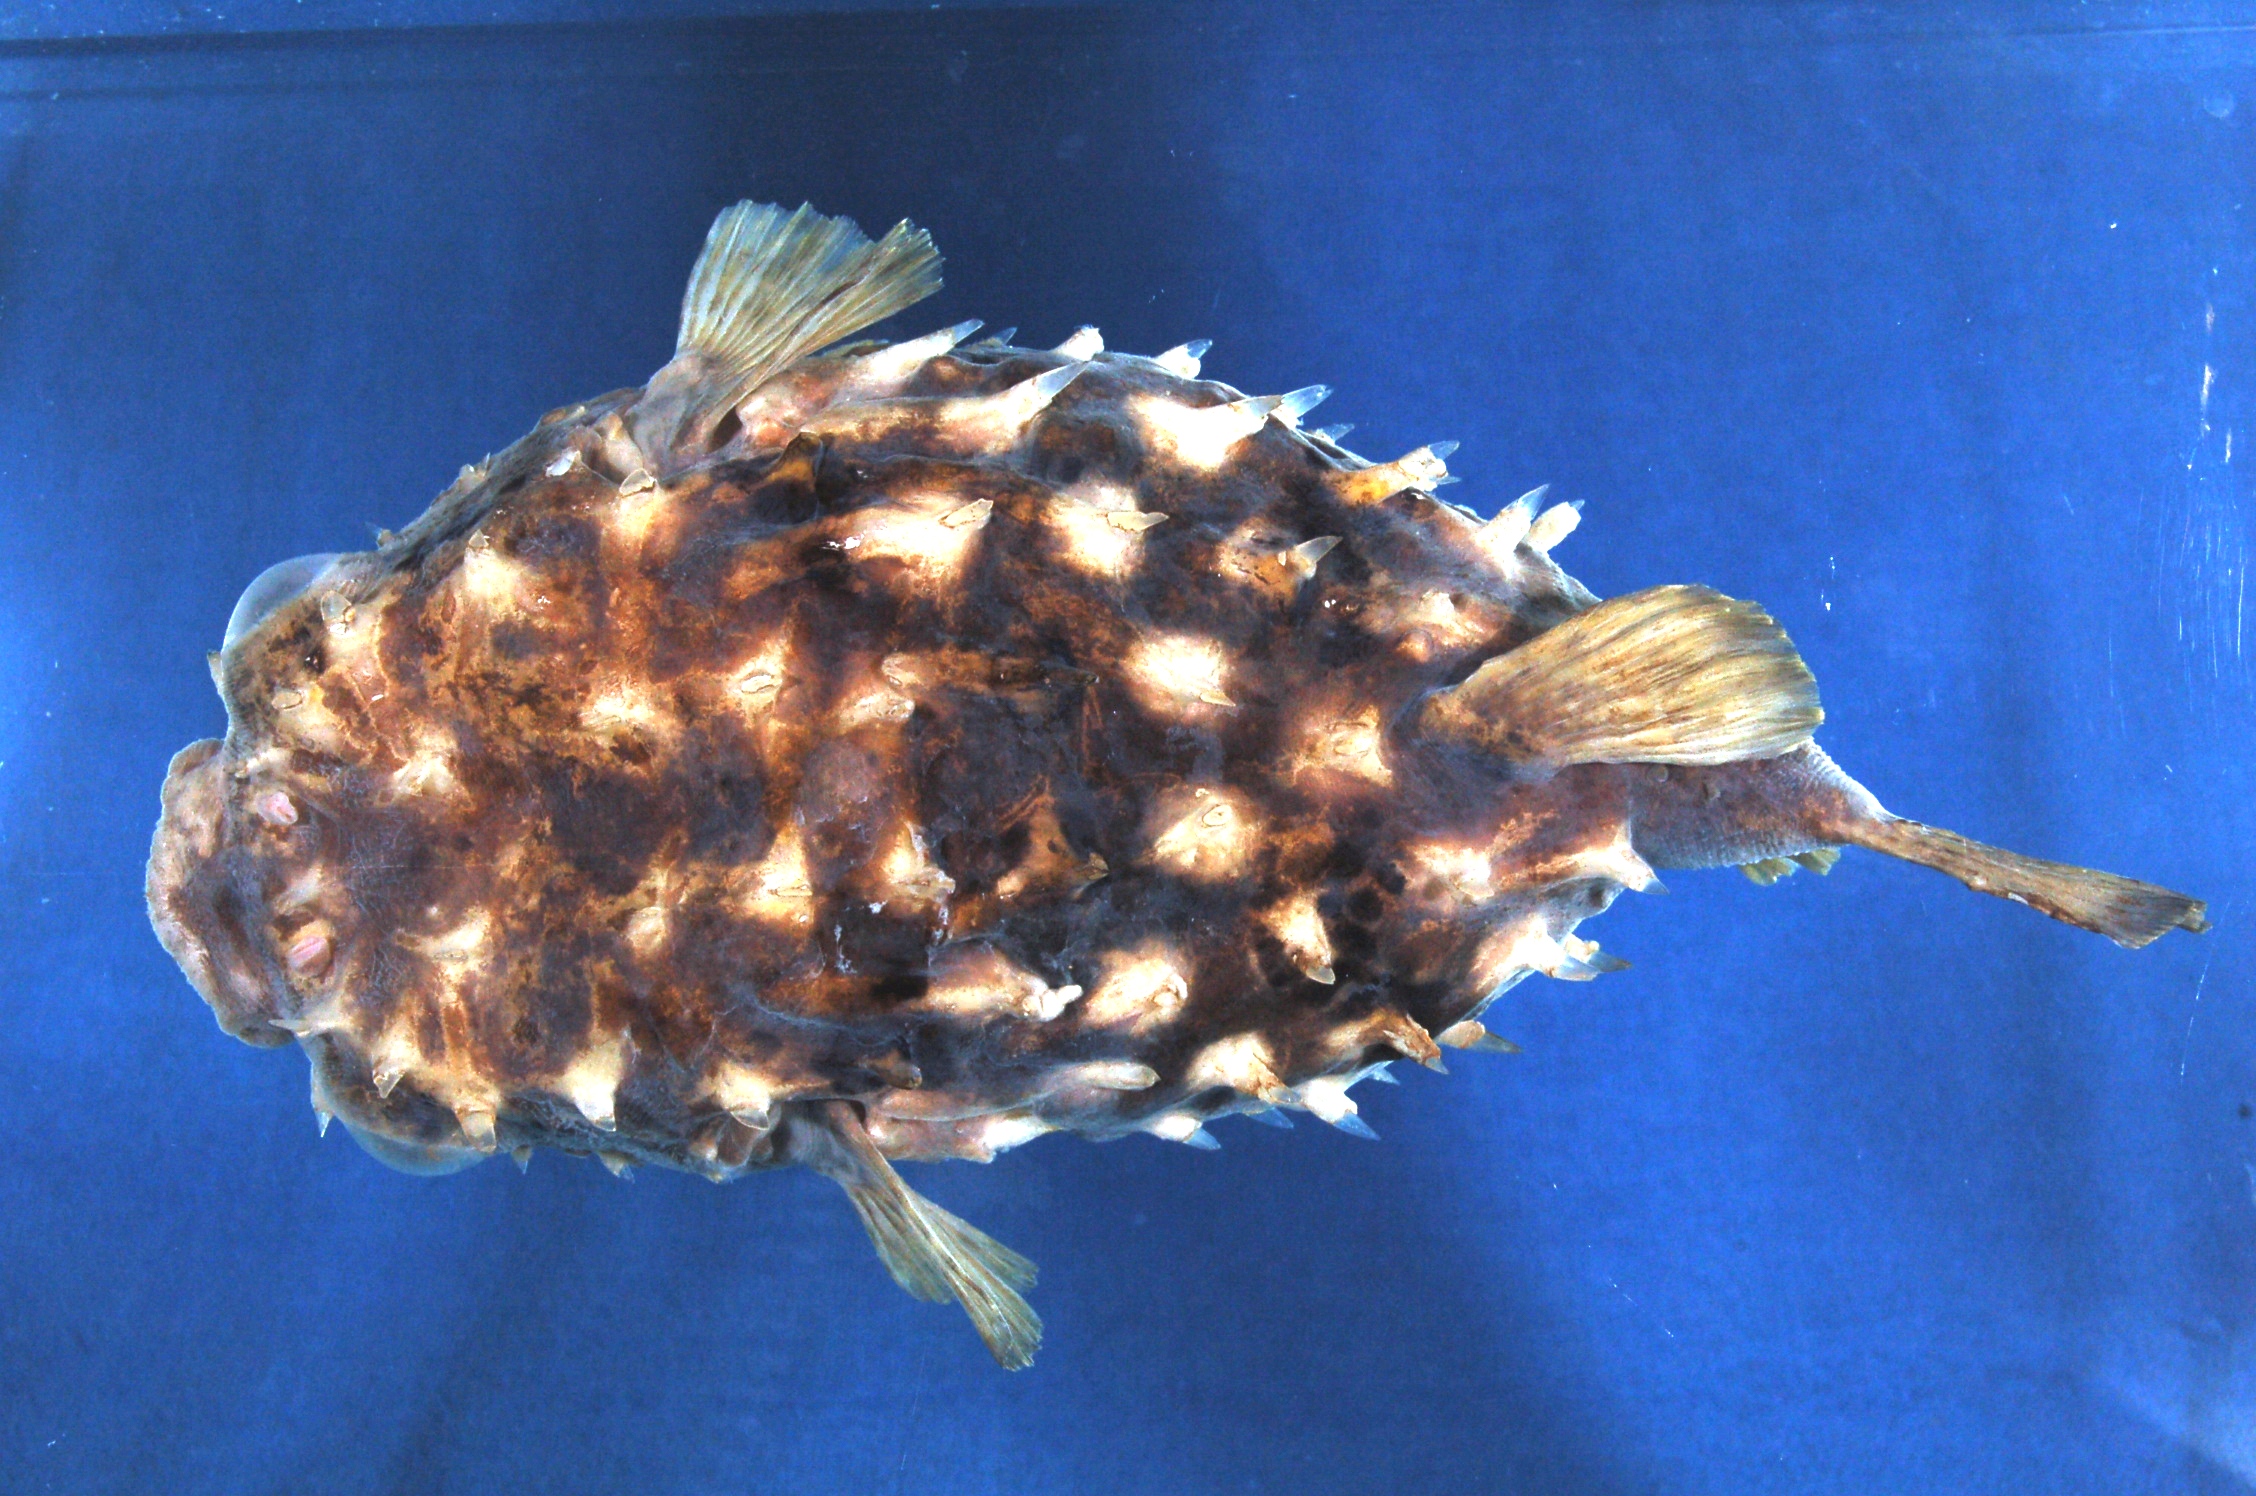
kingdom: Animalia
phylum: Chordata
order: Tetraodontiformes
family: Diodontidae
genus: Cyclichthys
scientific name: Cyclichthys
